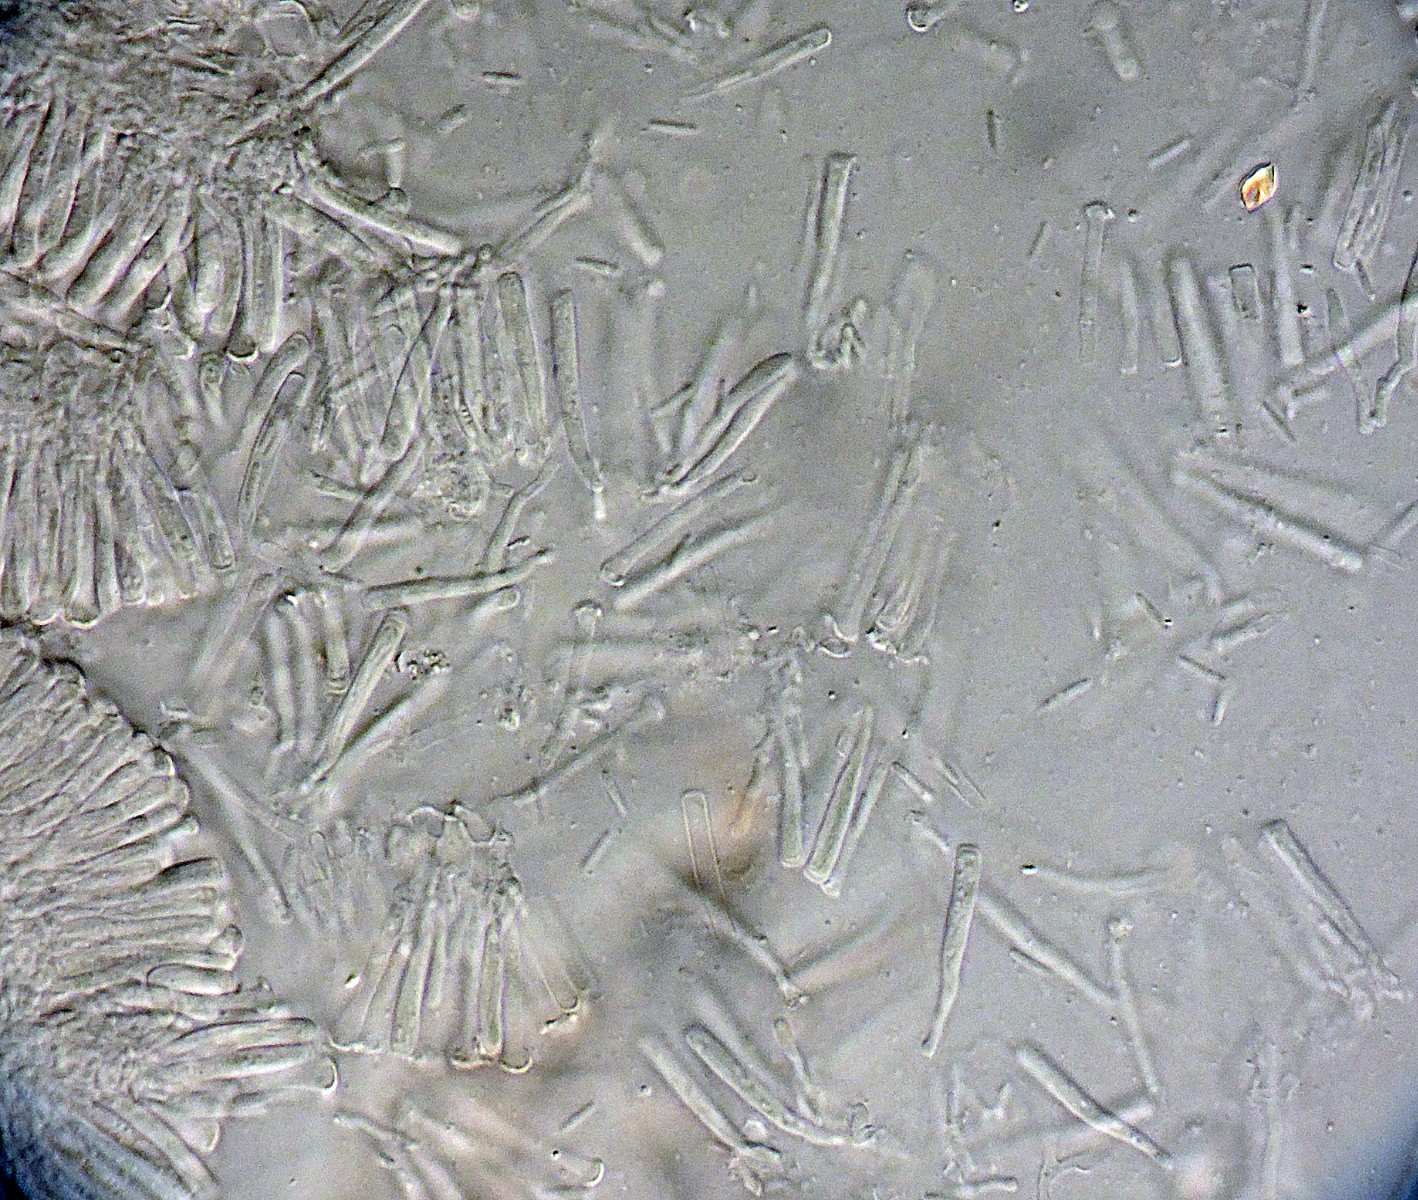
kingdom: Fungi
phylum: Ascomycota
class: Orbiliomycetes
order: Orbiliales
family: Orbiliaceae
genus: Hyalorbilia
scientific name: Hyalorbilia inflatula
